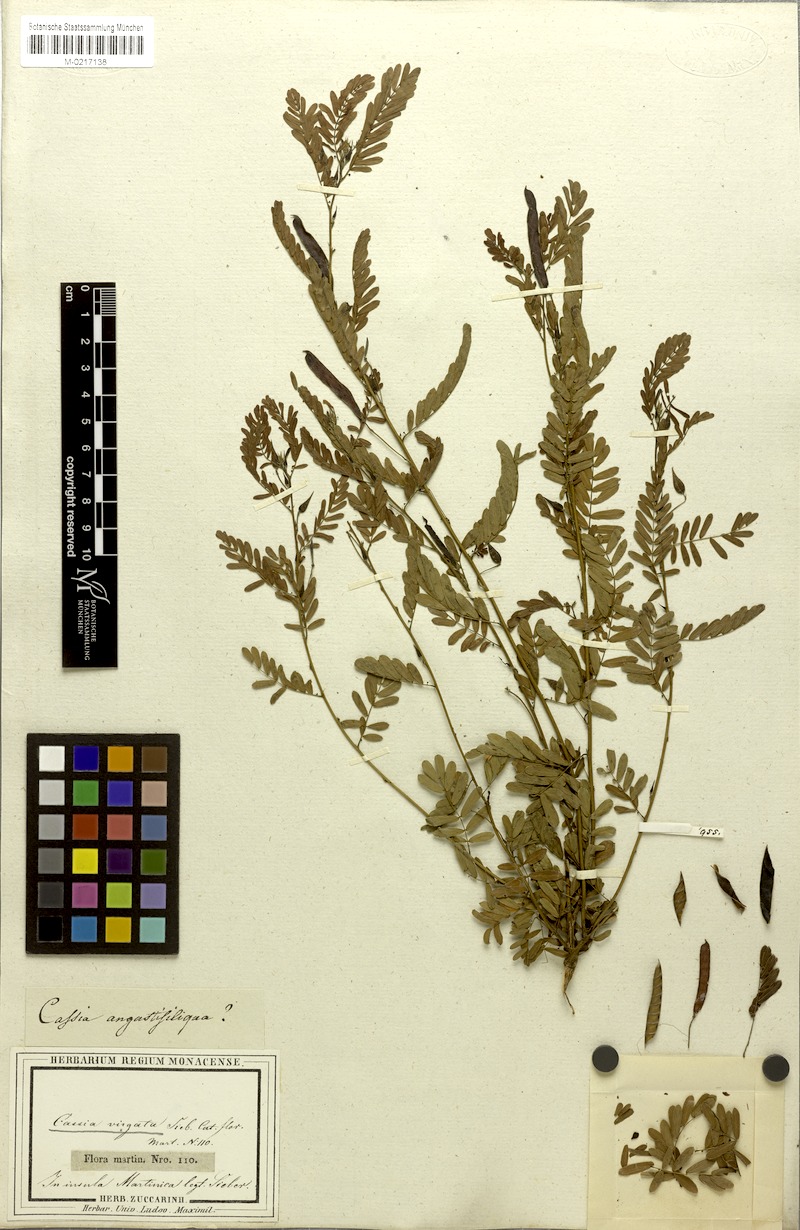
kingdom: Plantae
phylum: Tracheophyta
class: Magnoliopsida
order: Fabales
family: Fabaceae
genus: Chamaecrista
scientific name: Chamaecrista glandulosa
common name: Wild peas
